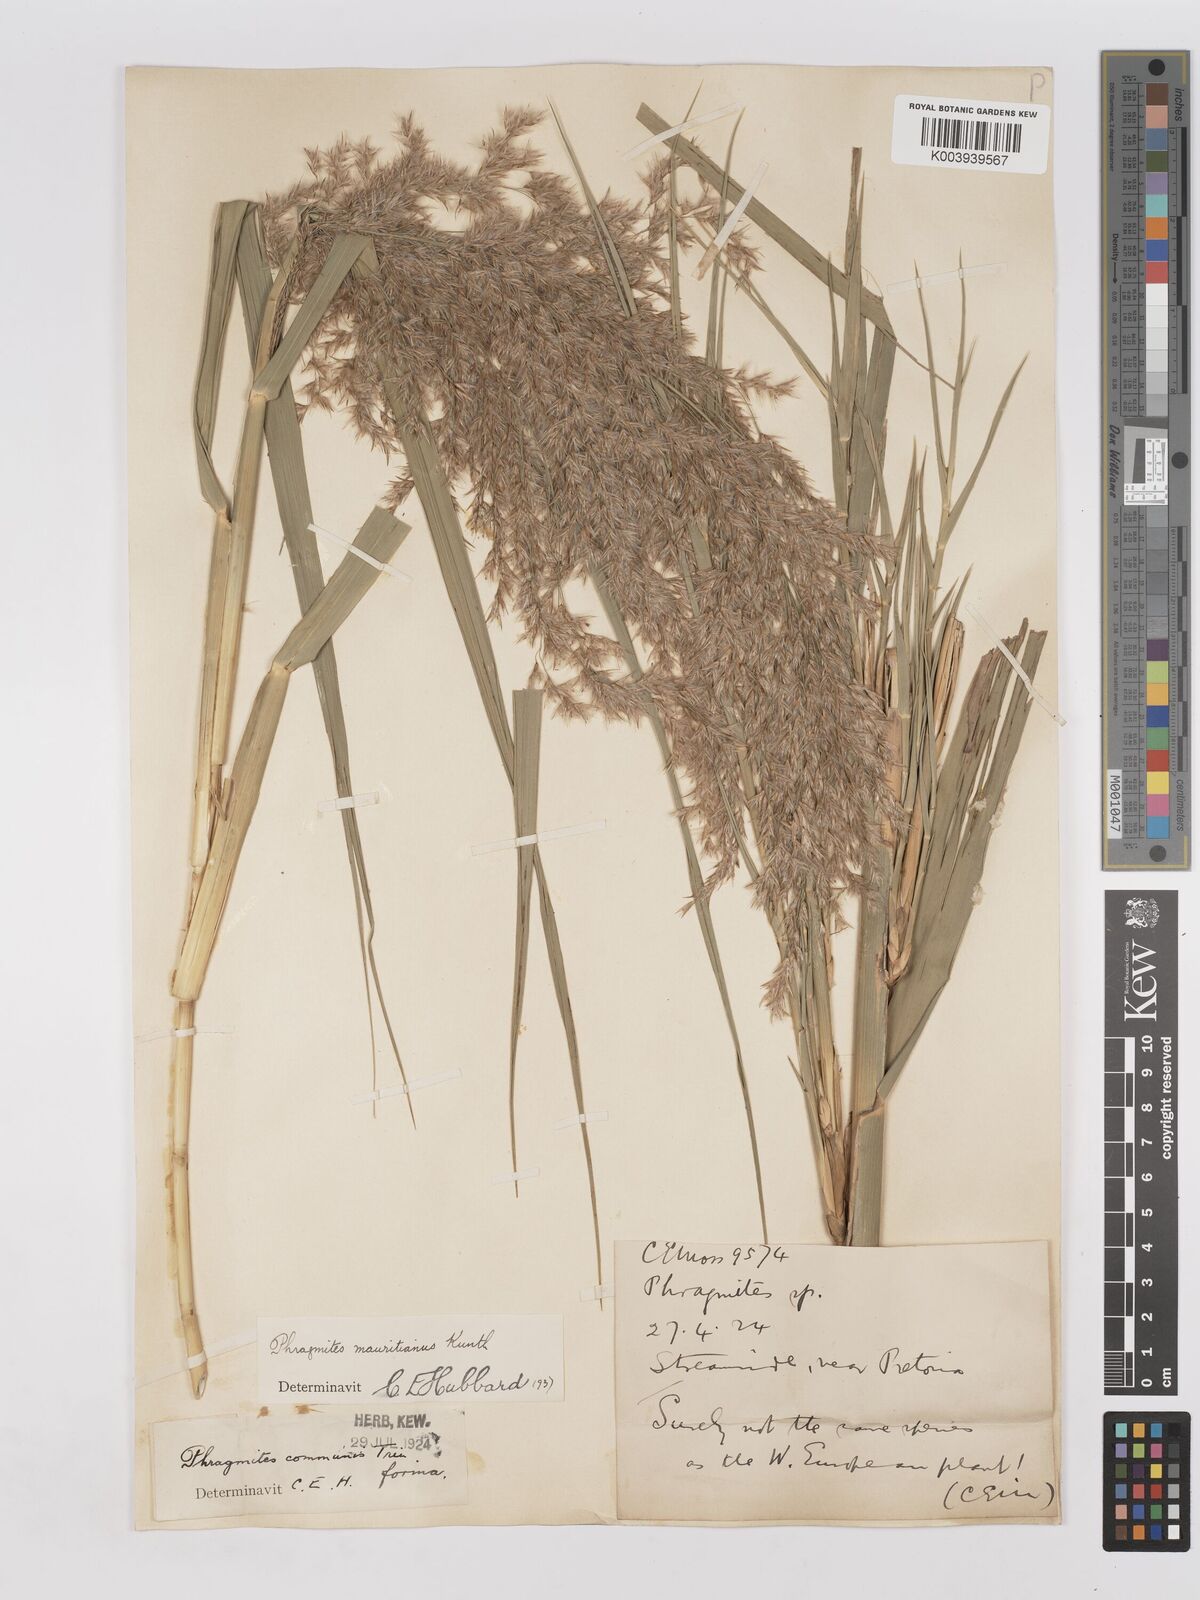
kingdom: Plantae
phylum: Tracheophyta
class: Liliopsida
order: Poales
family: Poaceae
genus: Phragmites
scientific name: Phragmites mauritianus
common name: Reed grass
